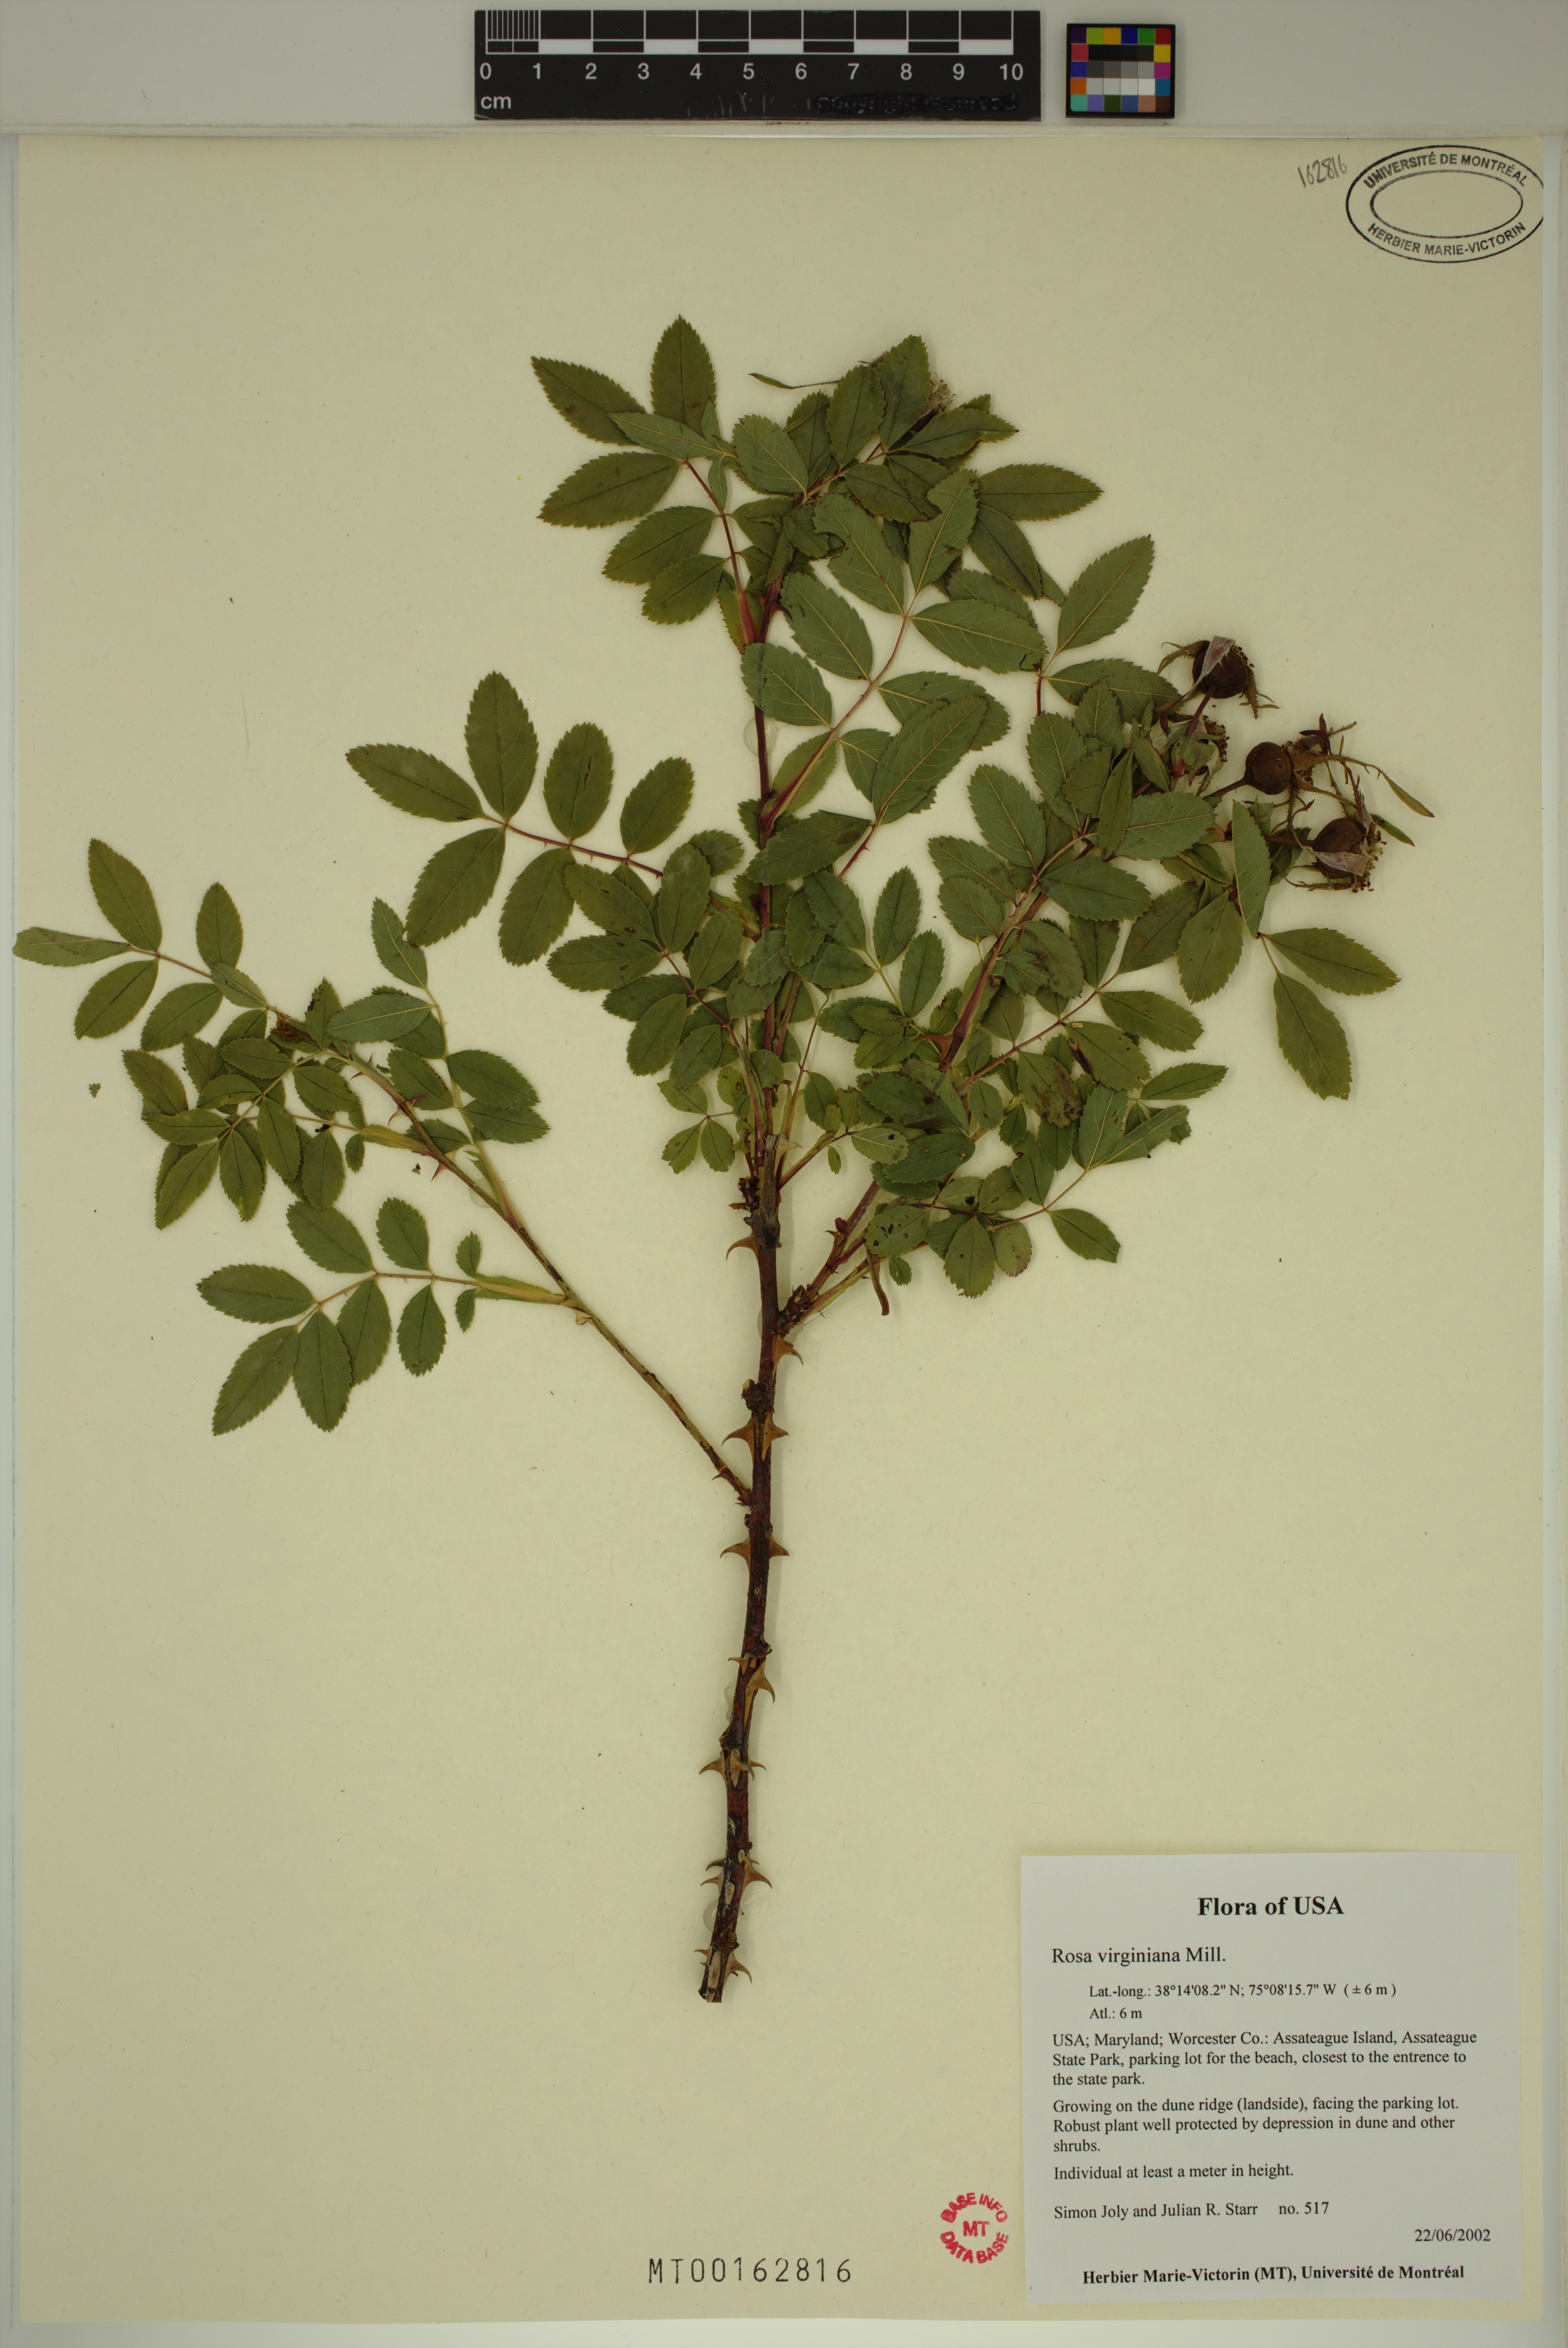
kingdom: Plantae
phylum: Tracheophyta
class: Magnoliopsida
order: Rosales
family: Rosaceae
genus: Rosa
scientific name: Rosa carolina
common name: Pasture rose
